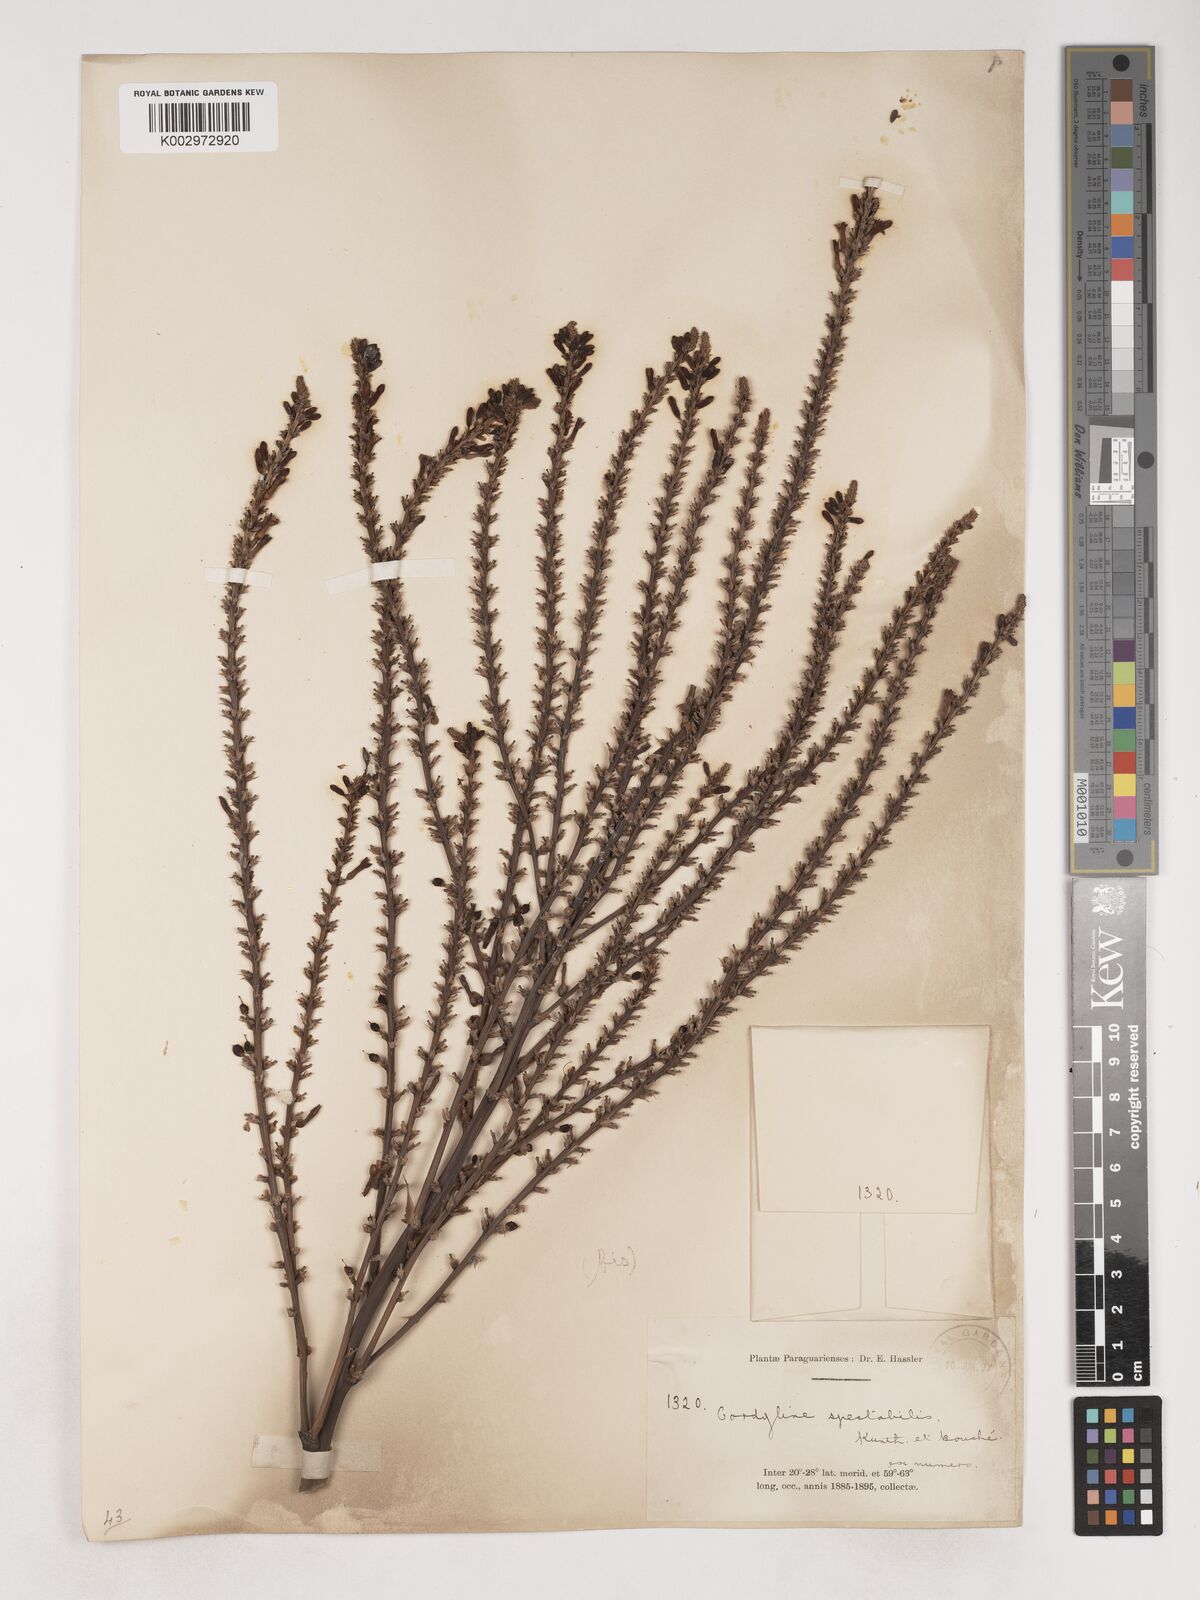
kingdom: Plantae
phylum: Tracheophyta
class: Liliopsida
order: Asparagales
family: Asparagaceae
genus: Cordyline
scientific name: Cordyline
